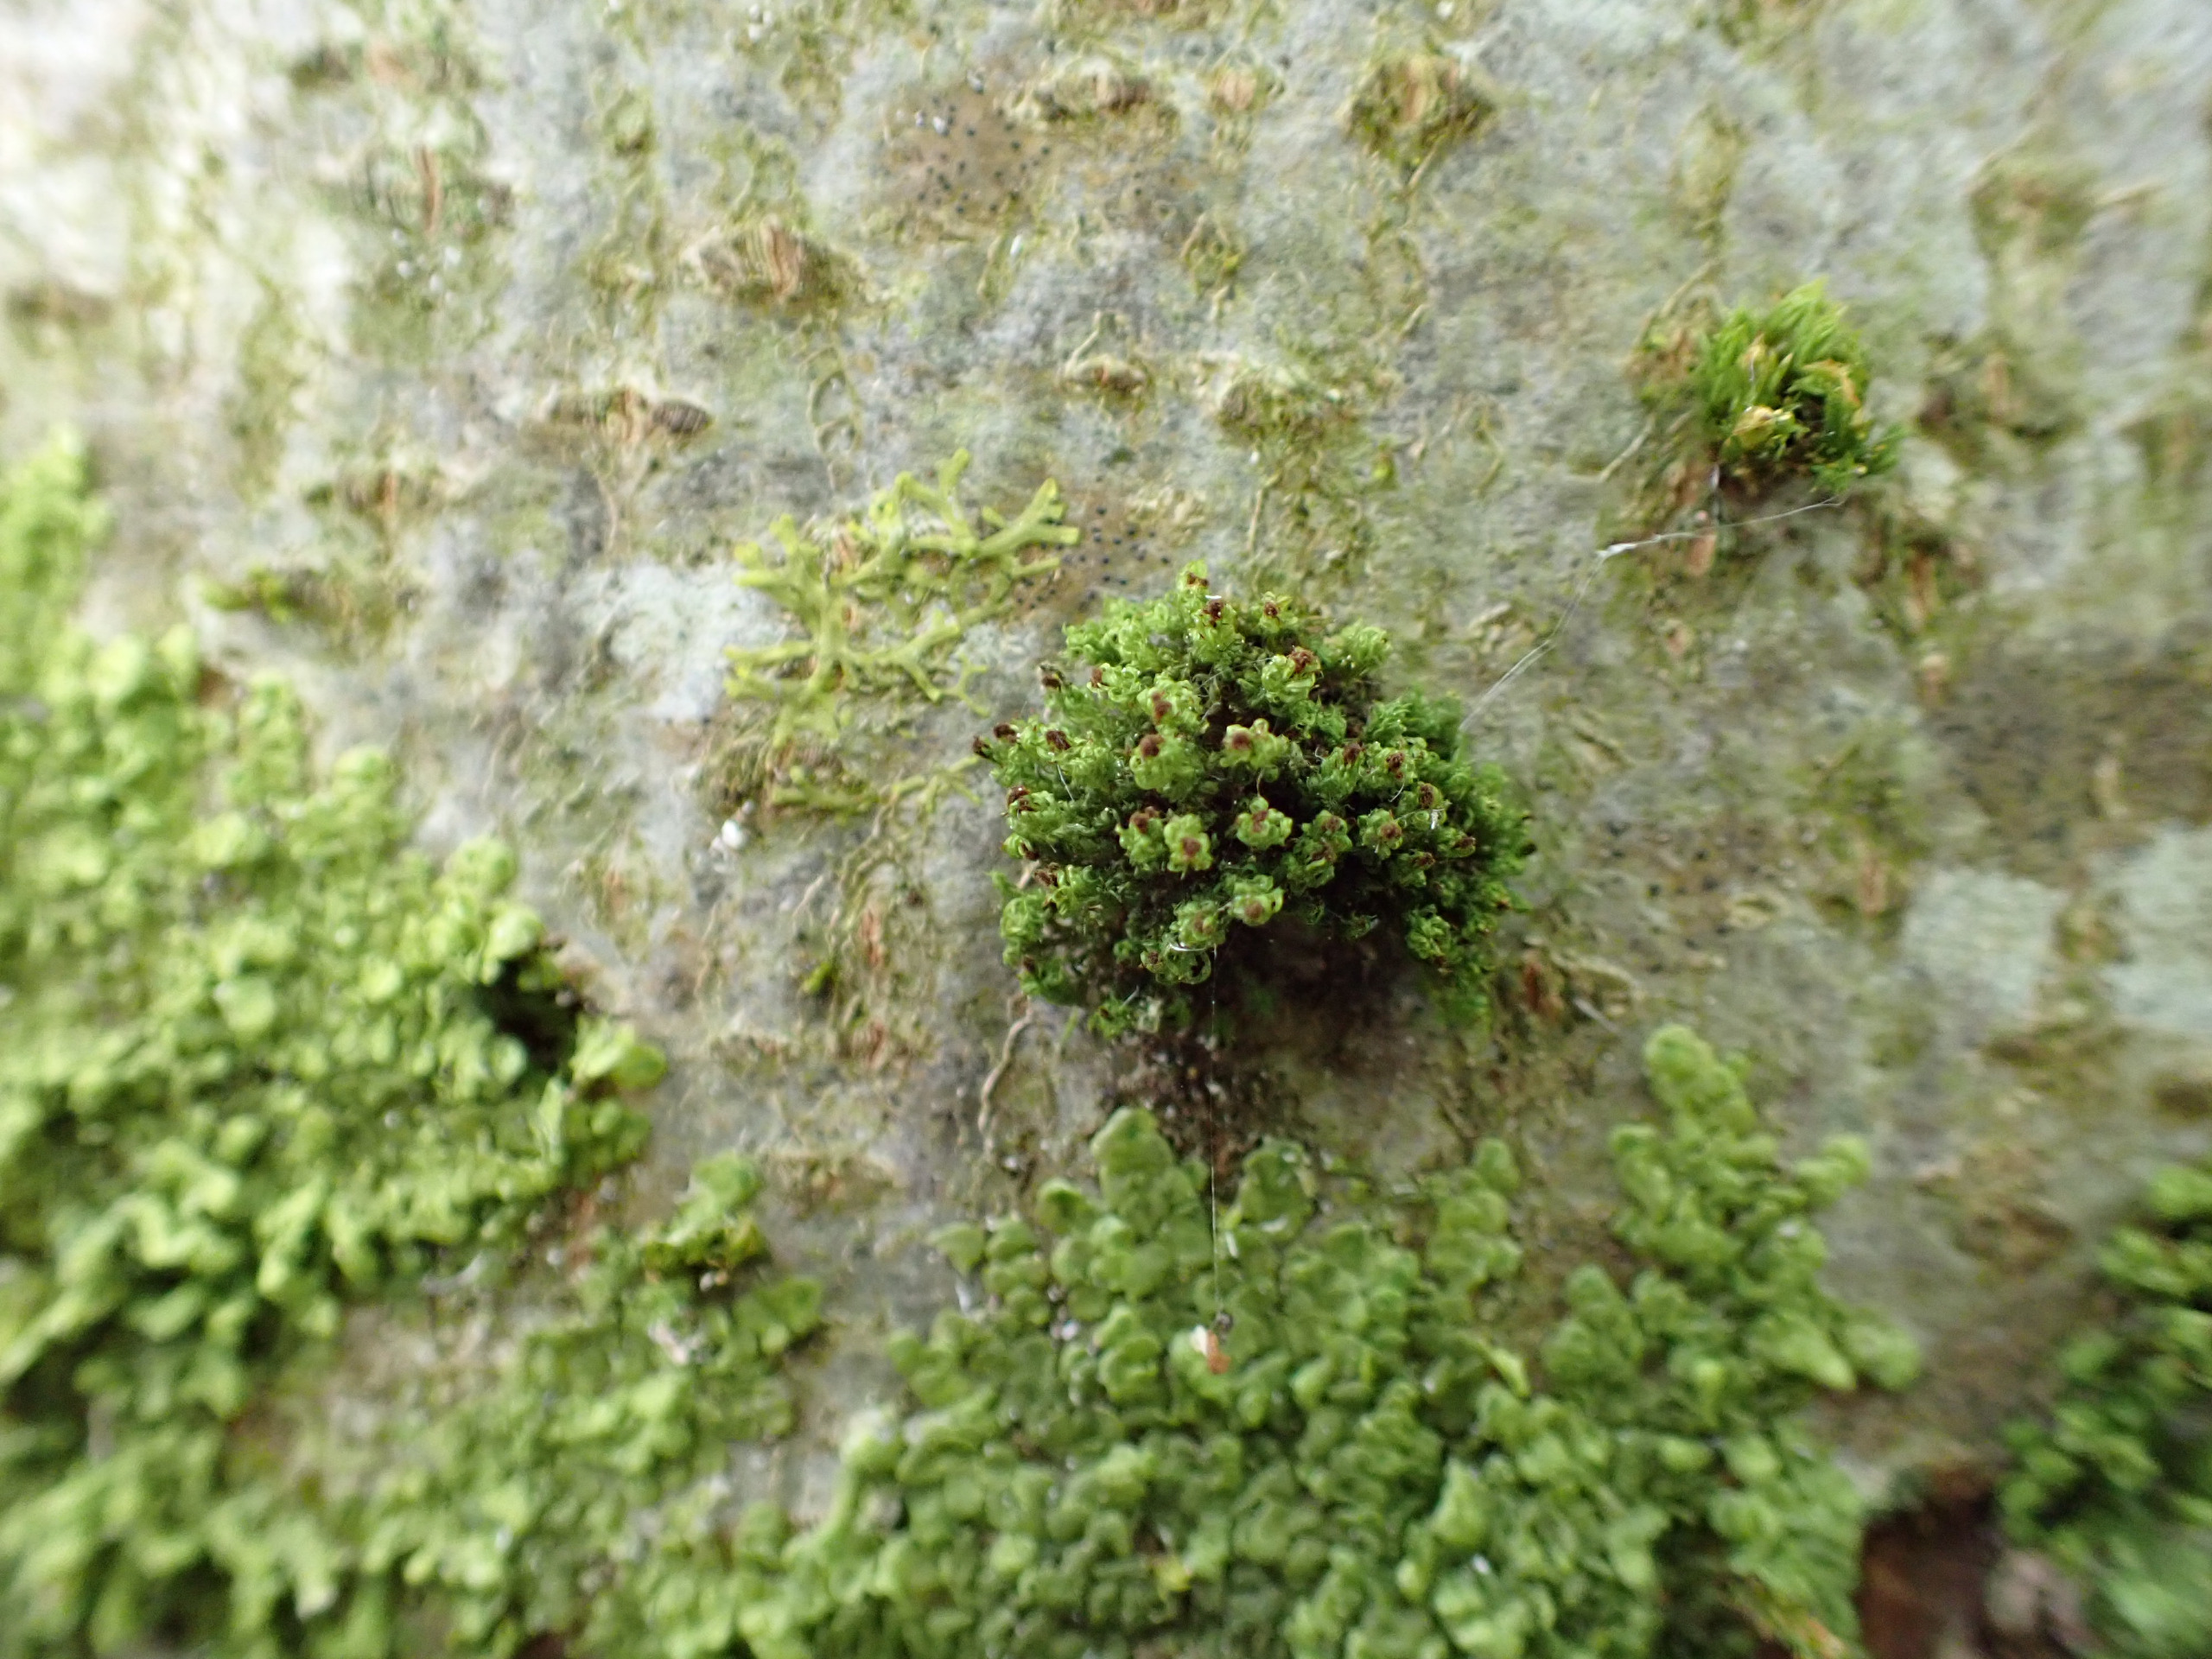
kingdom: Plantae
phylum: Bryophyta
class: Bryopsida
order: Orthotrichales
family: Orthotrichaceae
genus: Plenogemma
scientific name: Plenogemma phyllantha
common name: Stor låddenhætte
